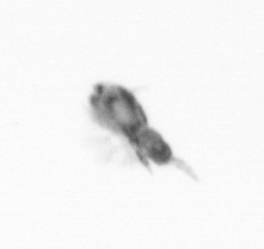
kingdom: Animalia
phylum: Arthropoda
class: Copepoda
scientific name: Copepoda
